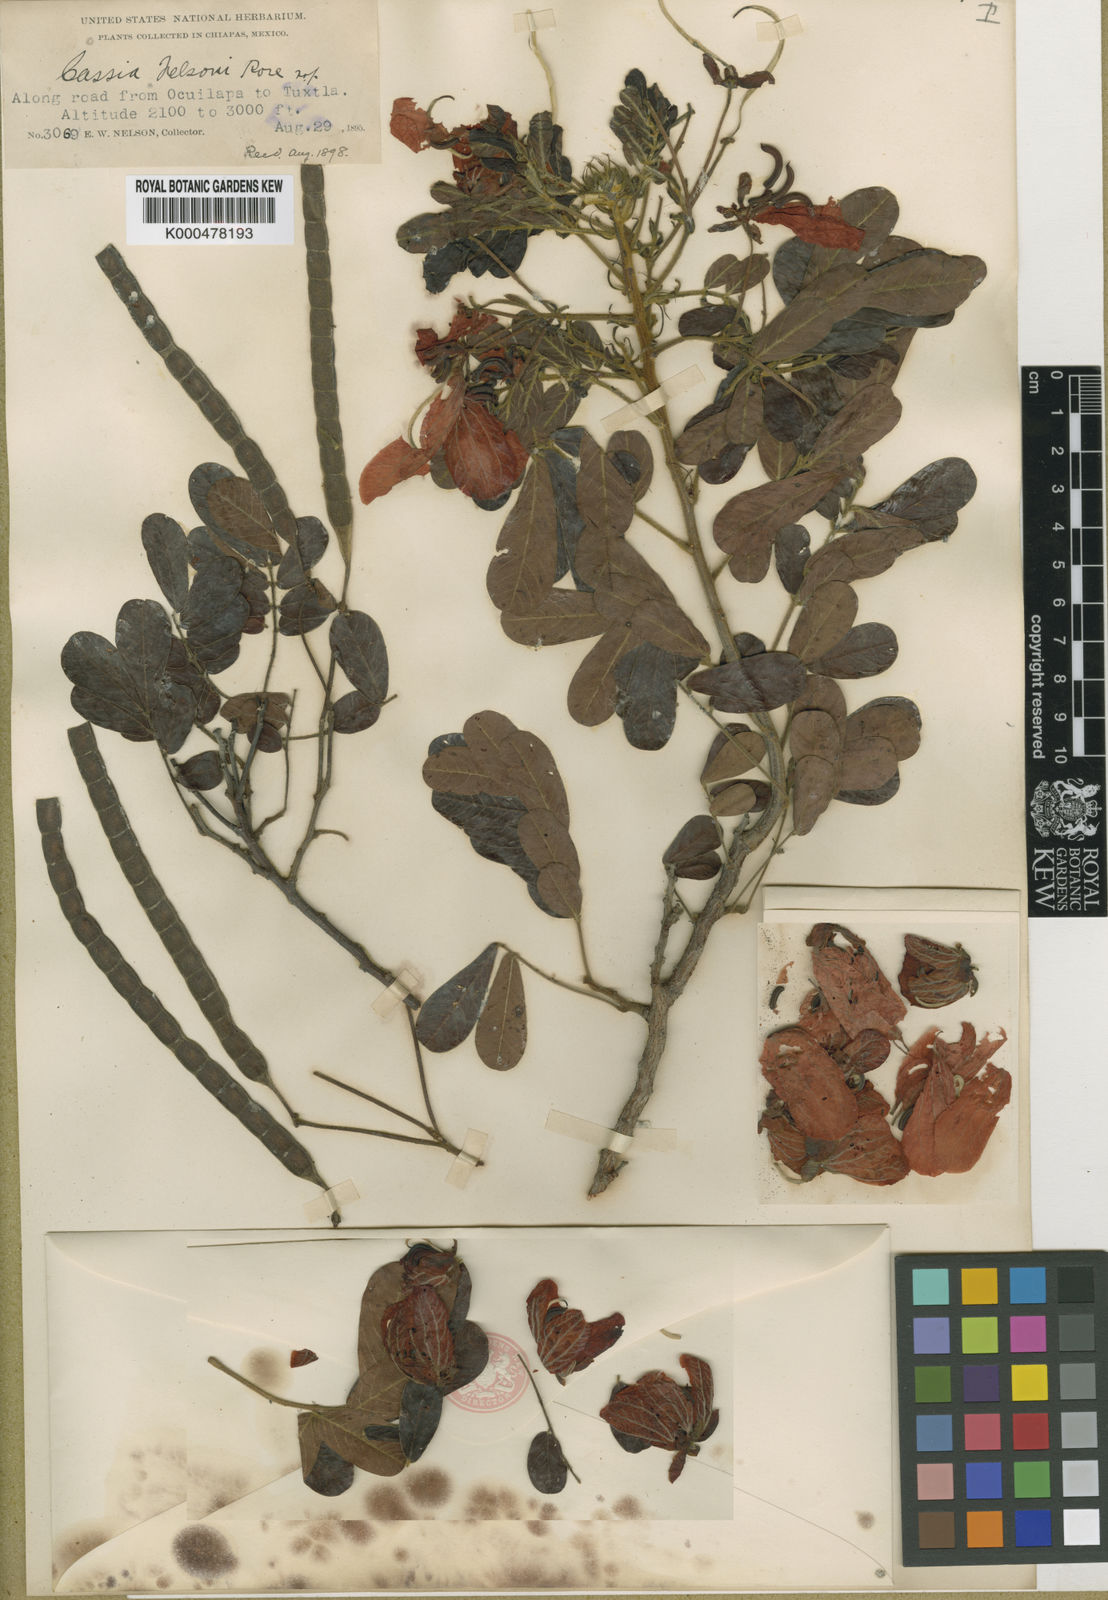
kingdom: Plantae
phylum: Tracheophyta
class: Magnoliopsida
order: Fabales
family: Fabaceae
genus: Senna
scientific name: Senna skinneri
